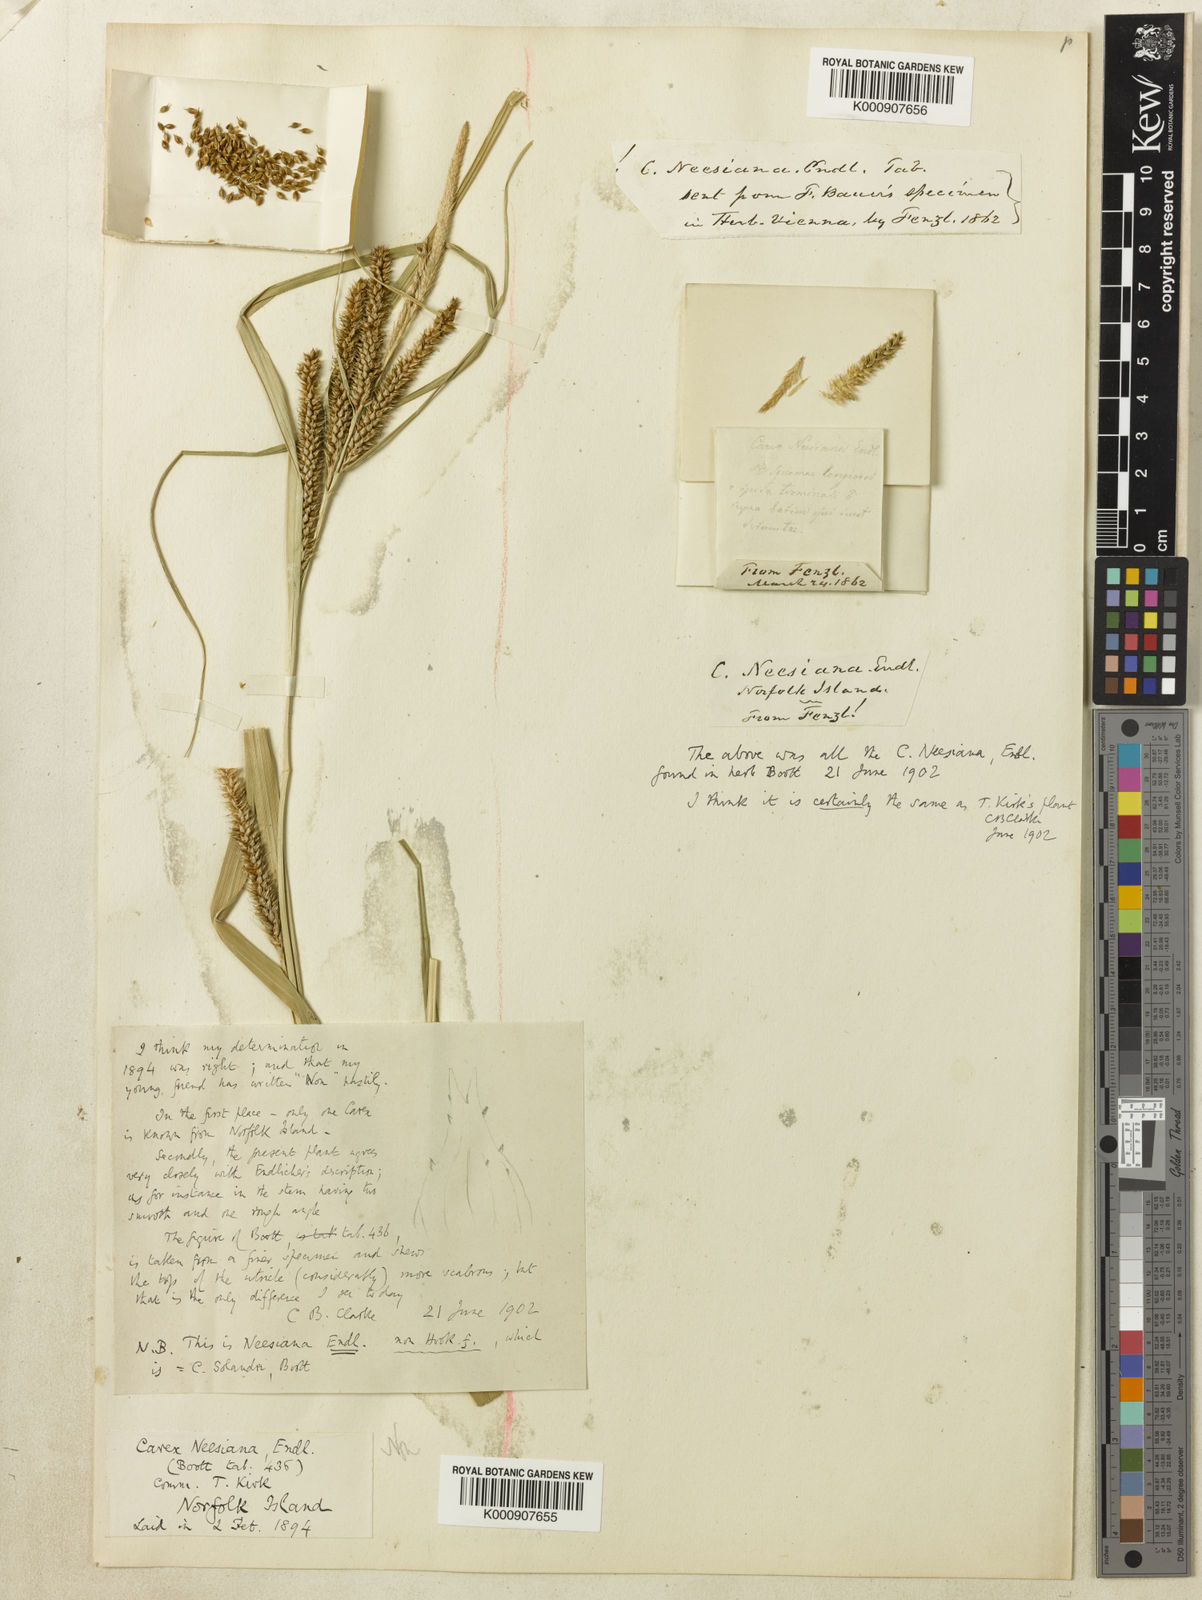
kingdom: Plantae
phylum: Tracheophyta
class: Liliopsida
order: Poales
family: Cyperaceae
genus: Carex
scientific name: Carex neesiana
